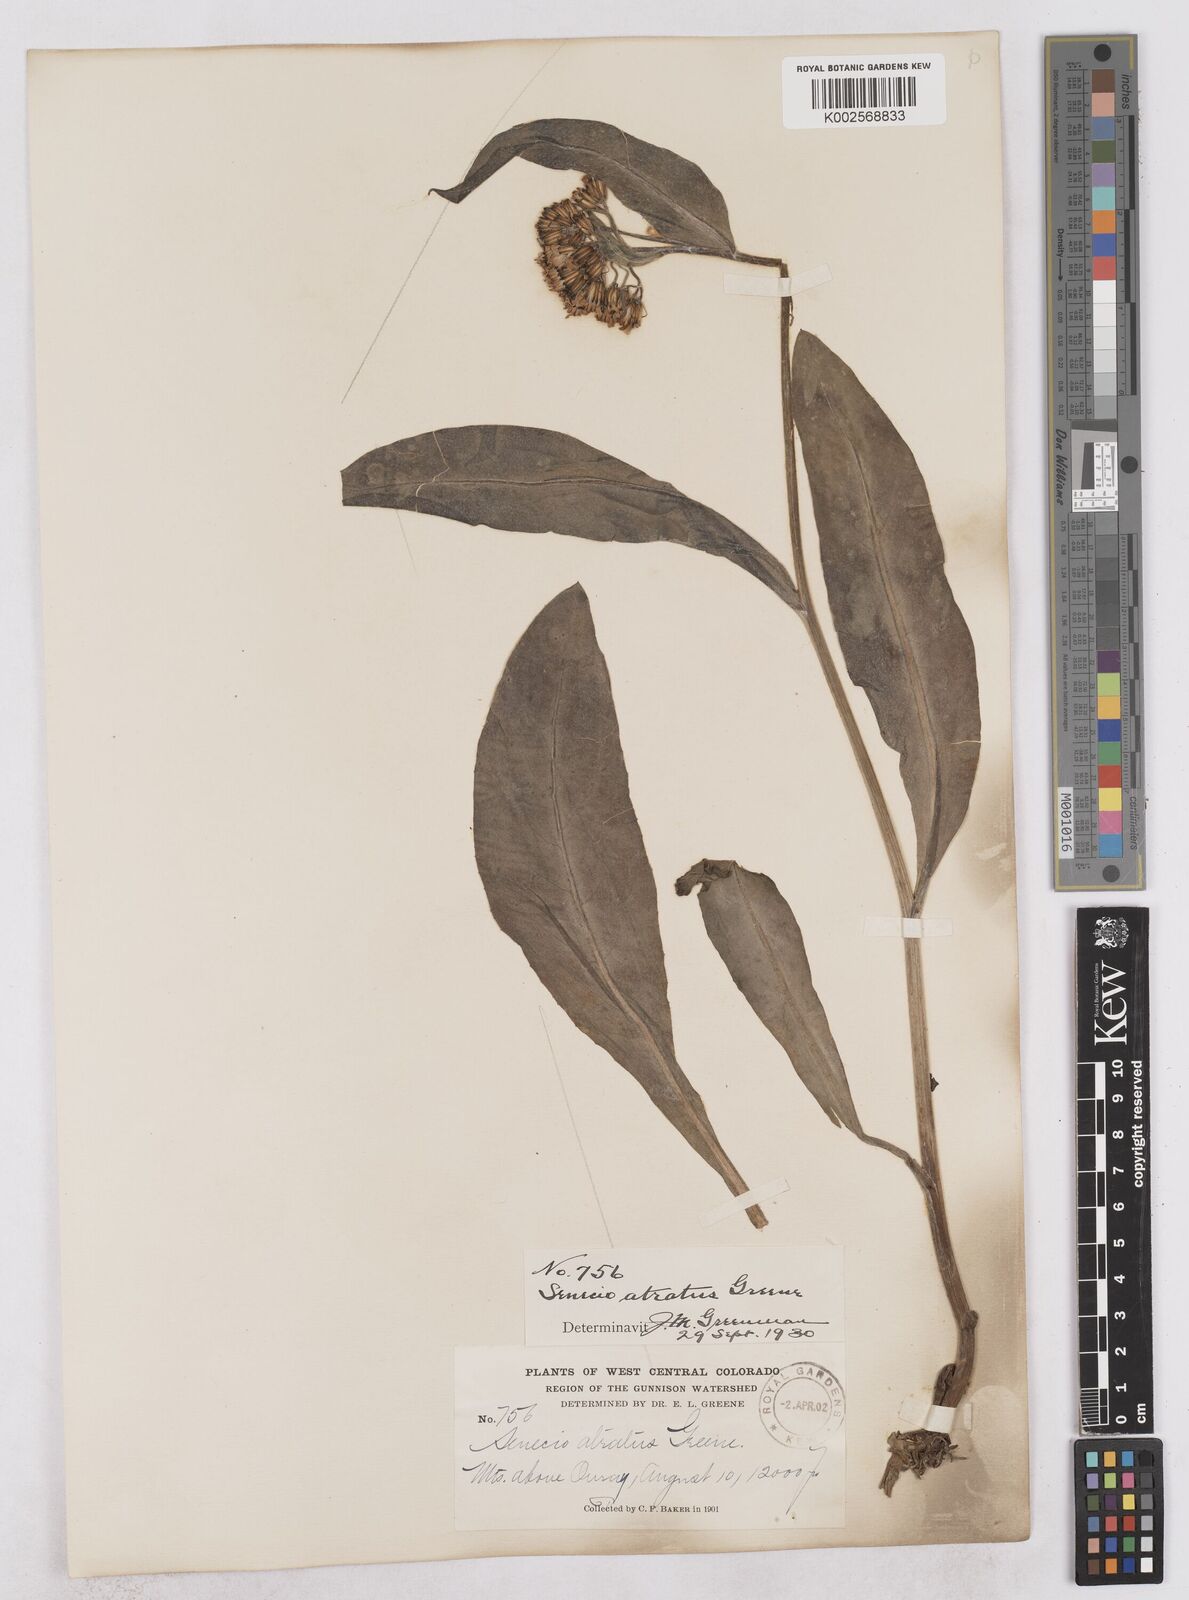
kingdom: Plantae
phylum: Tracheophyta
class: Magnoliopsida
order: Asterales
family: Asteraceae
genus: Senecio
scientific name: Senecio atratus
